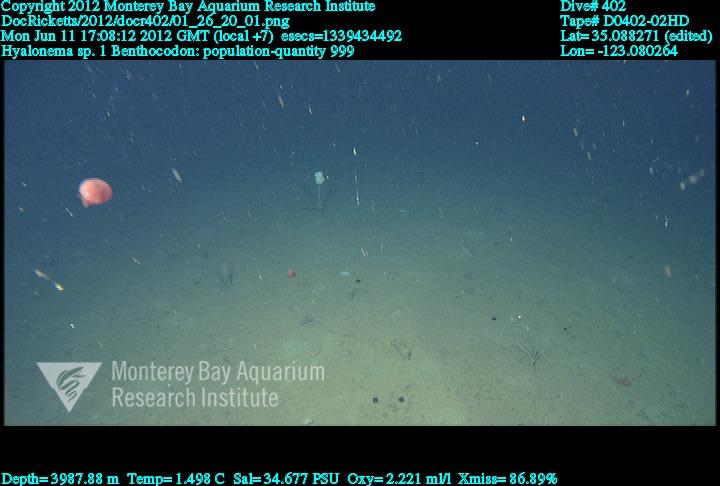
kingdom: Animalia
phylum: Porifera
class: Hexactinellida
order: Amphidiscosida
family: Hyalonematidae
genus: Hyalonema
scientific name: Hyalonema
